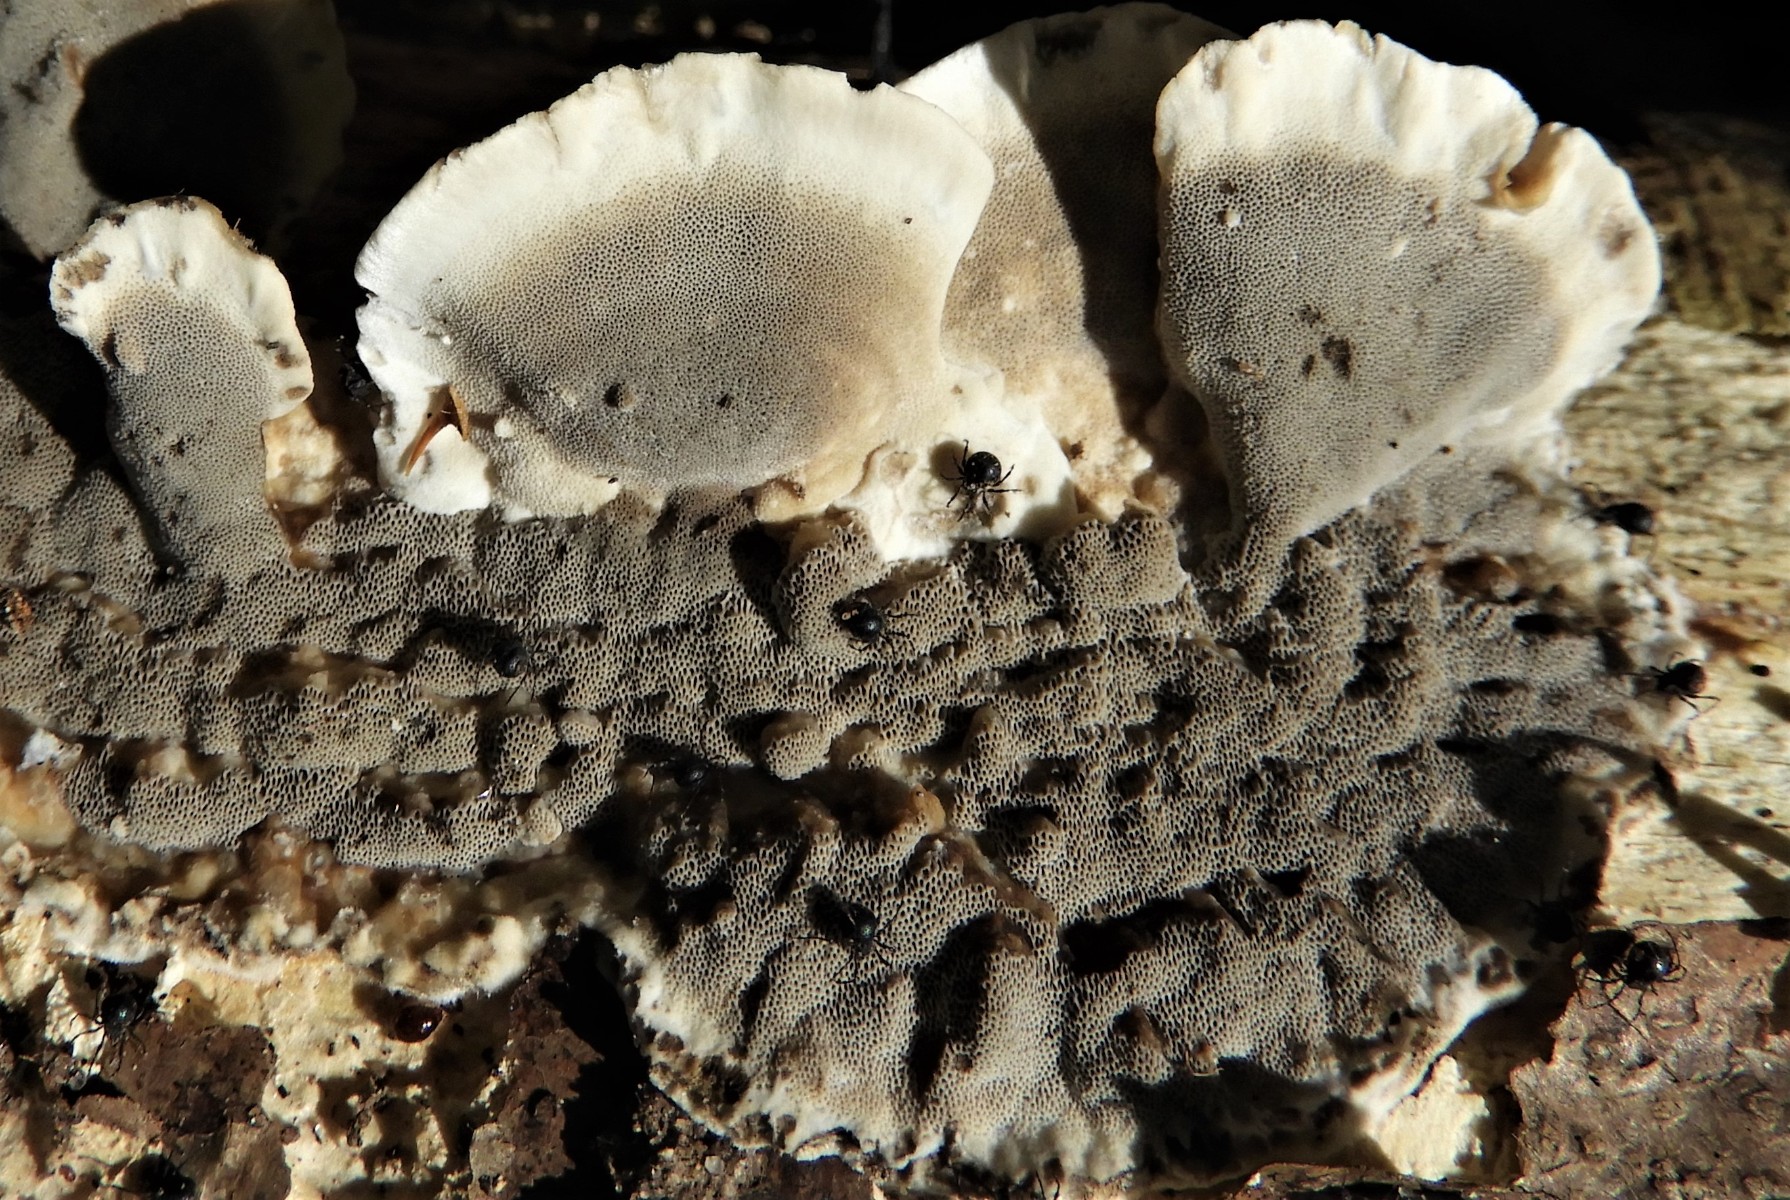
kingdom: Fungi
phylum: Basidiomycota
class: Agaricomycetes
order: Polyporales
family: Phanerochaetaceae
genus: Bjerkandera
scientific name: Bjerkandera adusta
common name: sveden sodporesvamp
